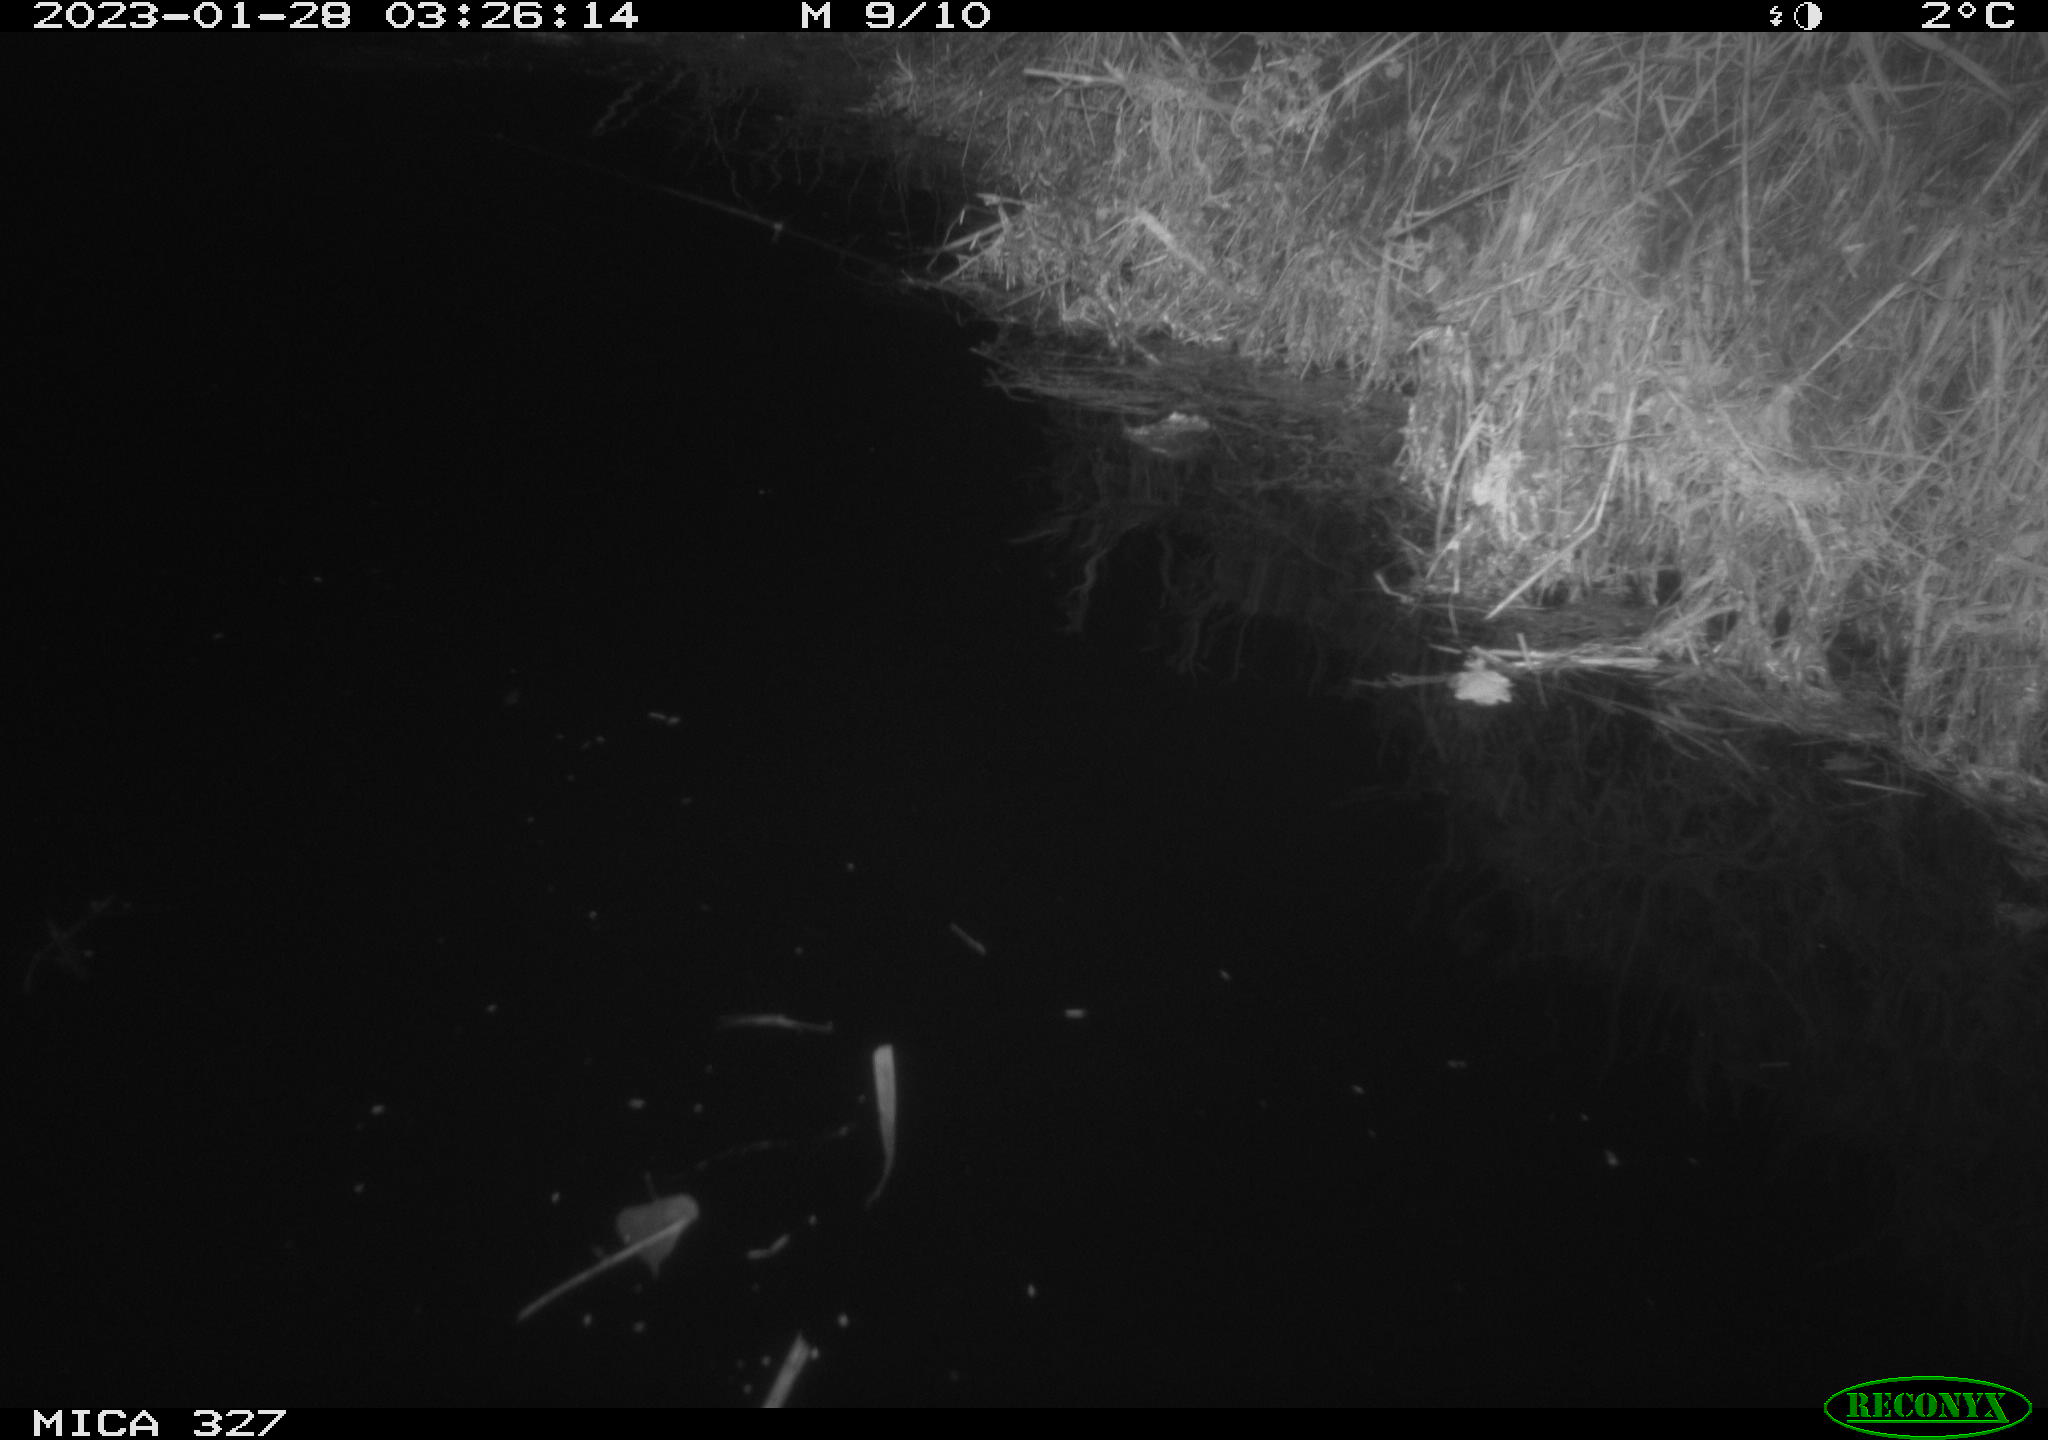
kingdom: Animalia
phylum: Chordata
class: Mammalia
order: Rodentia
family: Cricetidae
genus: Ondatra
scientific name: Ondatra zibethicus
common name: Muskrat
